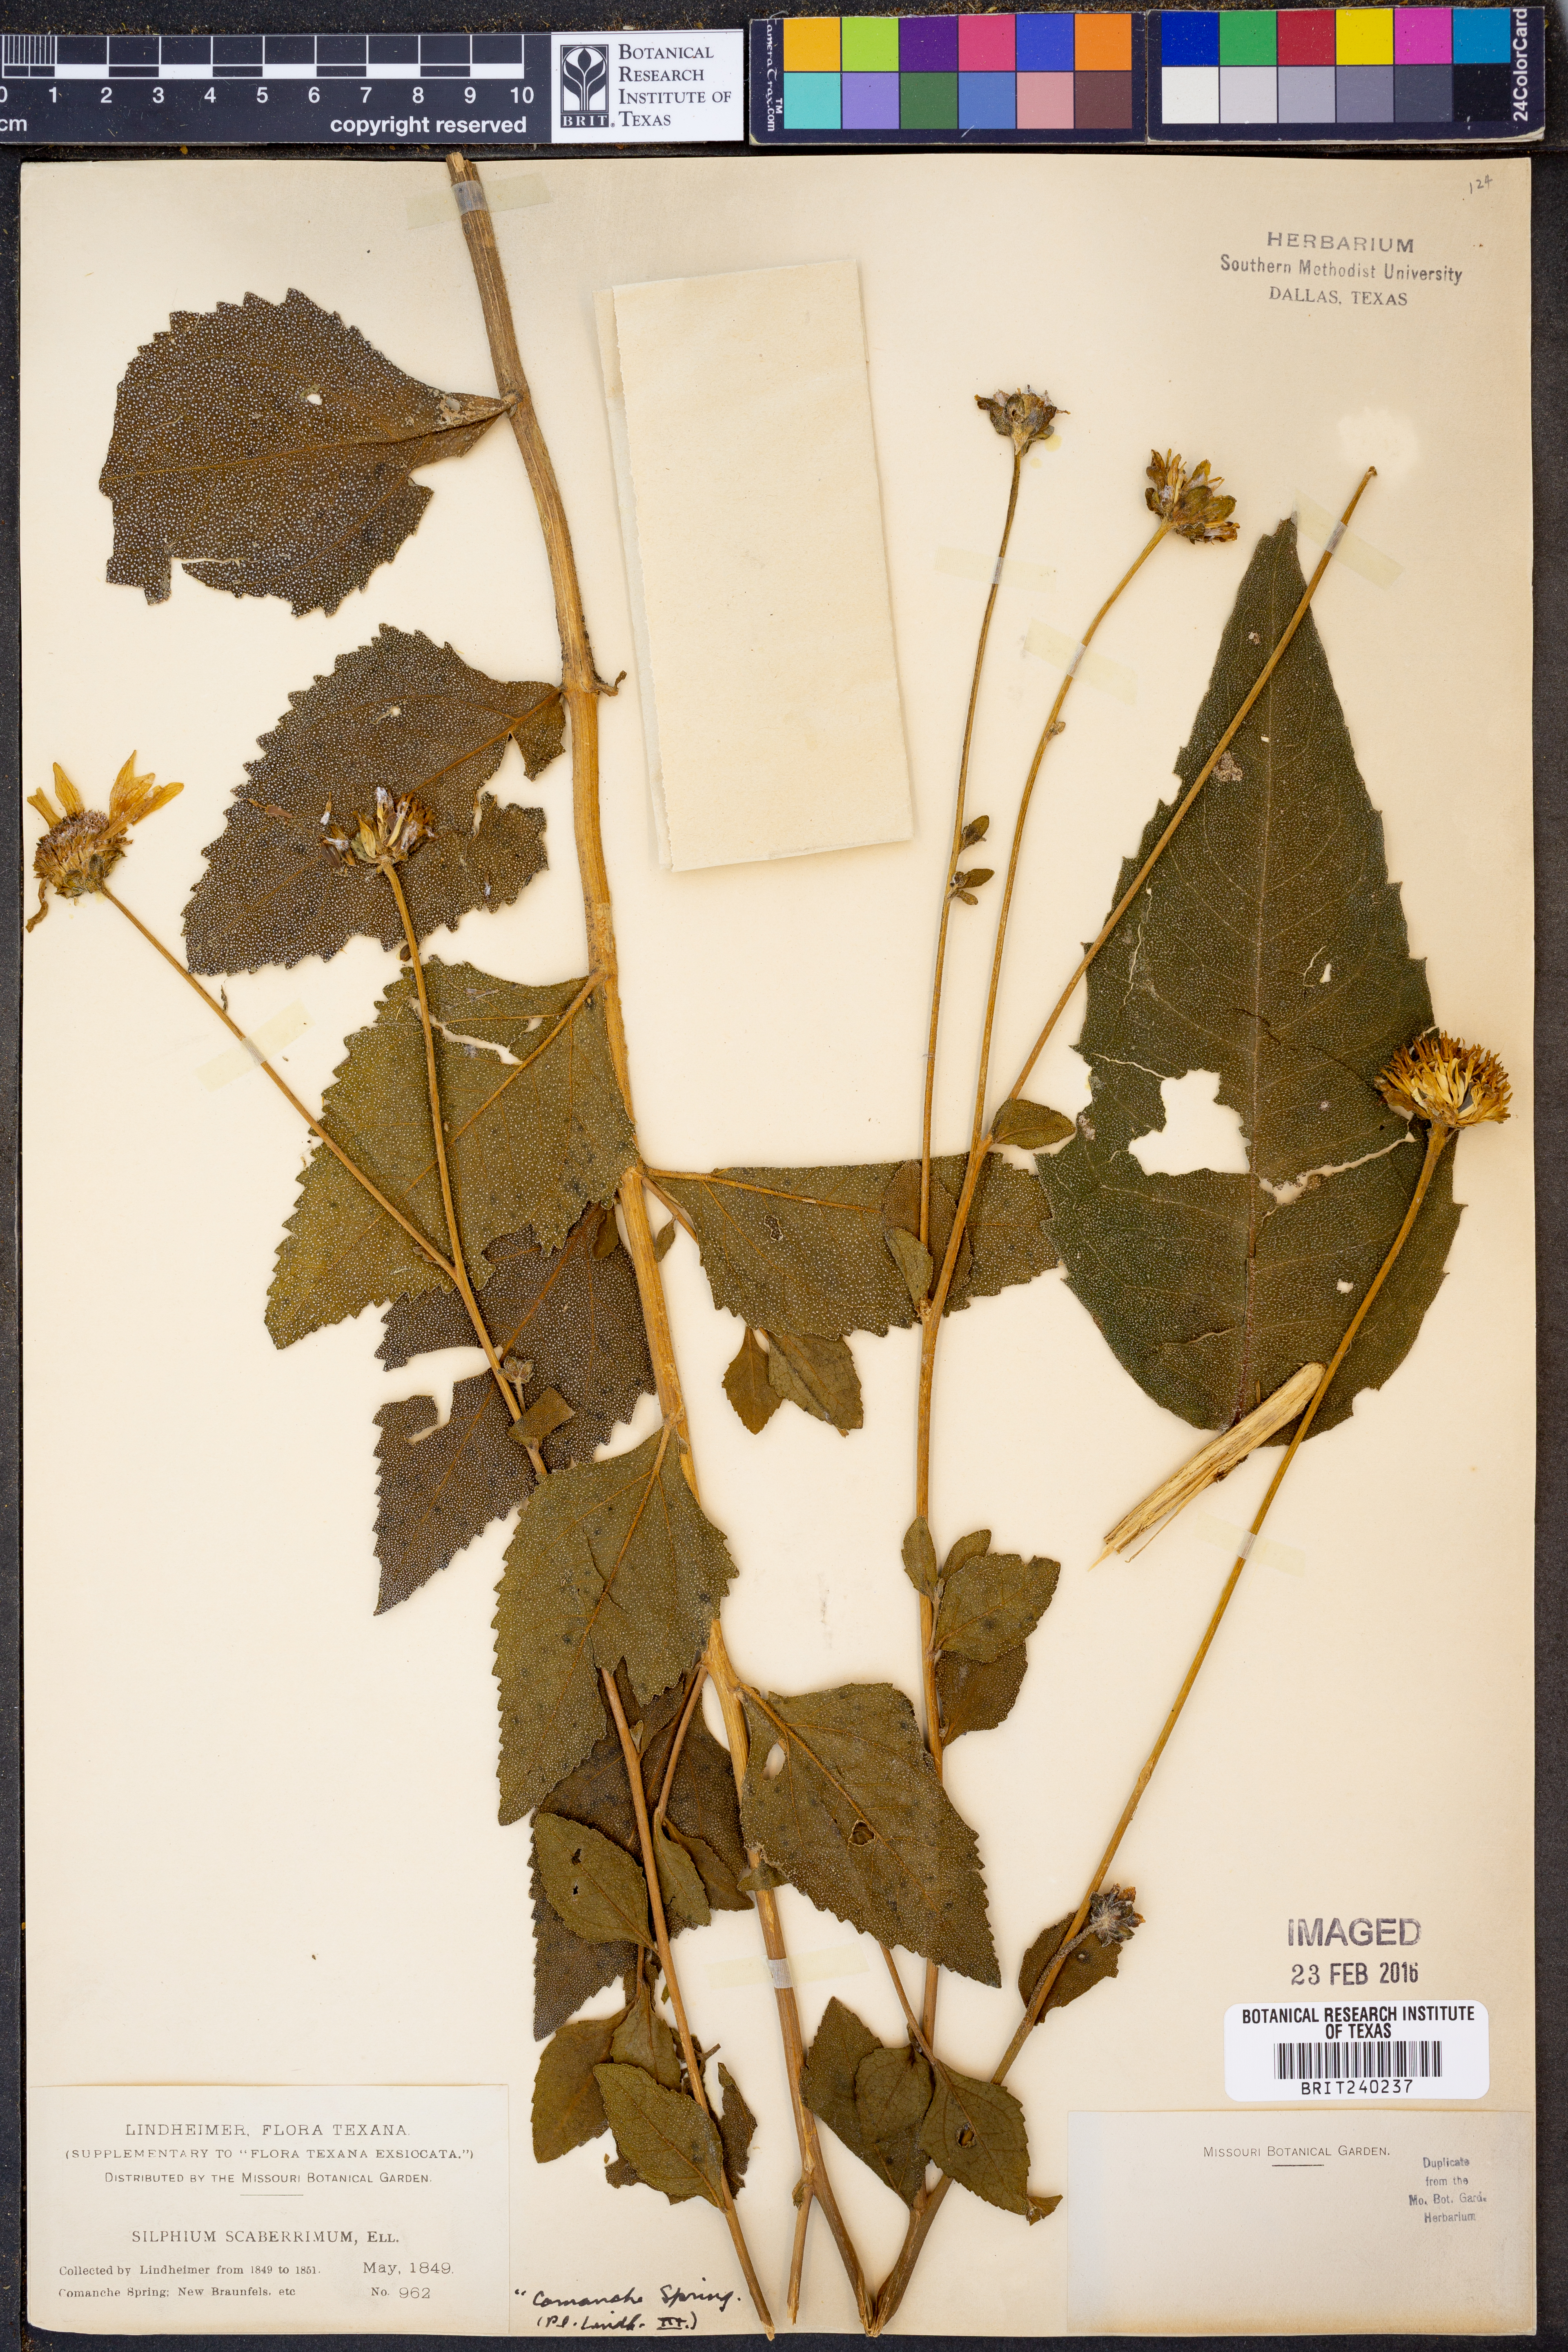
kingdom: Plantae
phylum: Tracheophyta
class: Magnoliopsida
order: Asterales
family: Asteraceae
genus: Silphium
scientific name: Silphium asteriscus
